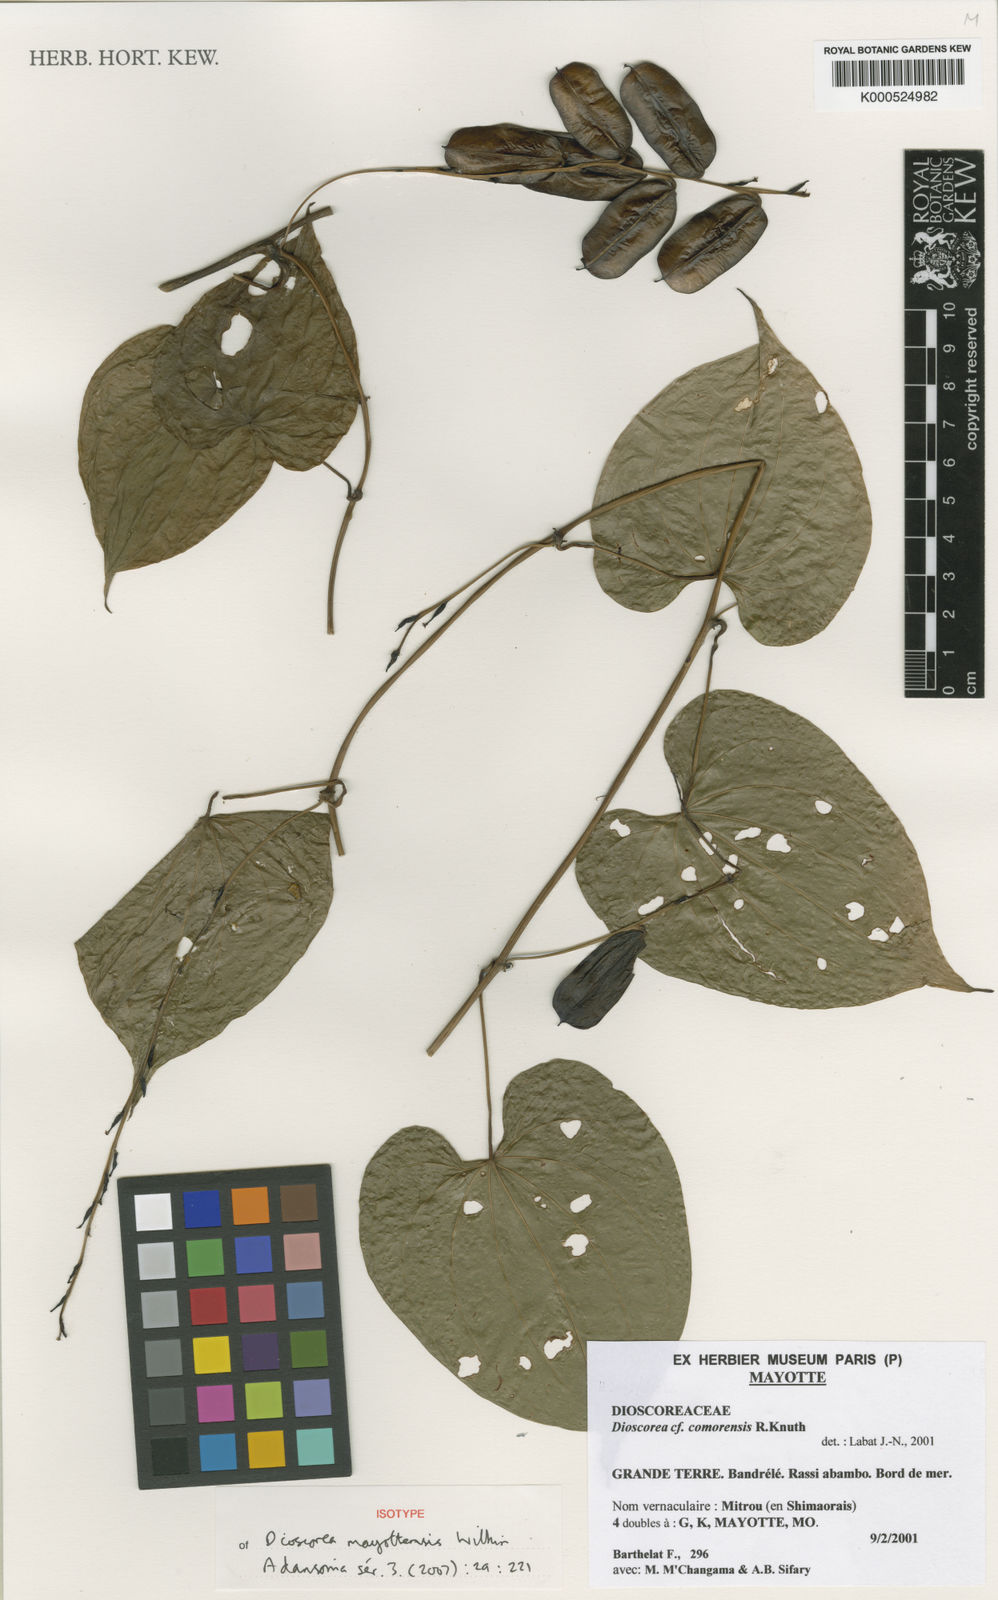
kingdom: Plantae
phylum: Tracheophyta
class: Liliopsida
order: Dioscoreales
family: Dioscoreaceae
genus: Dioscorea
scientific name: Dioscorea mayottensis
